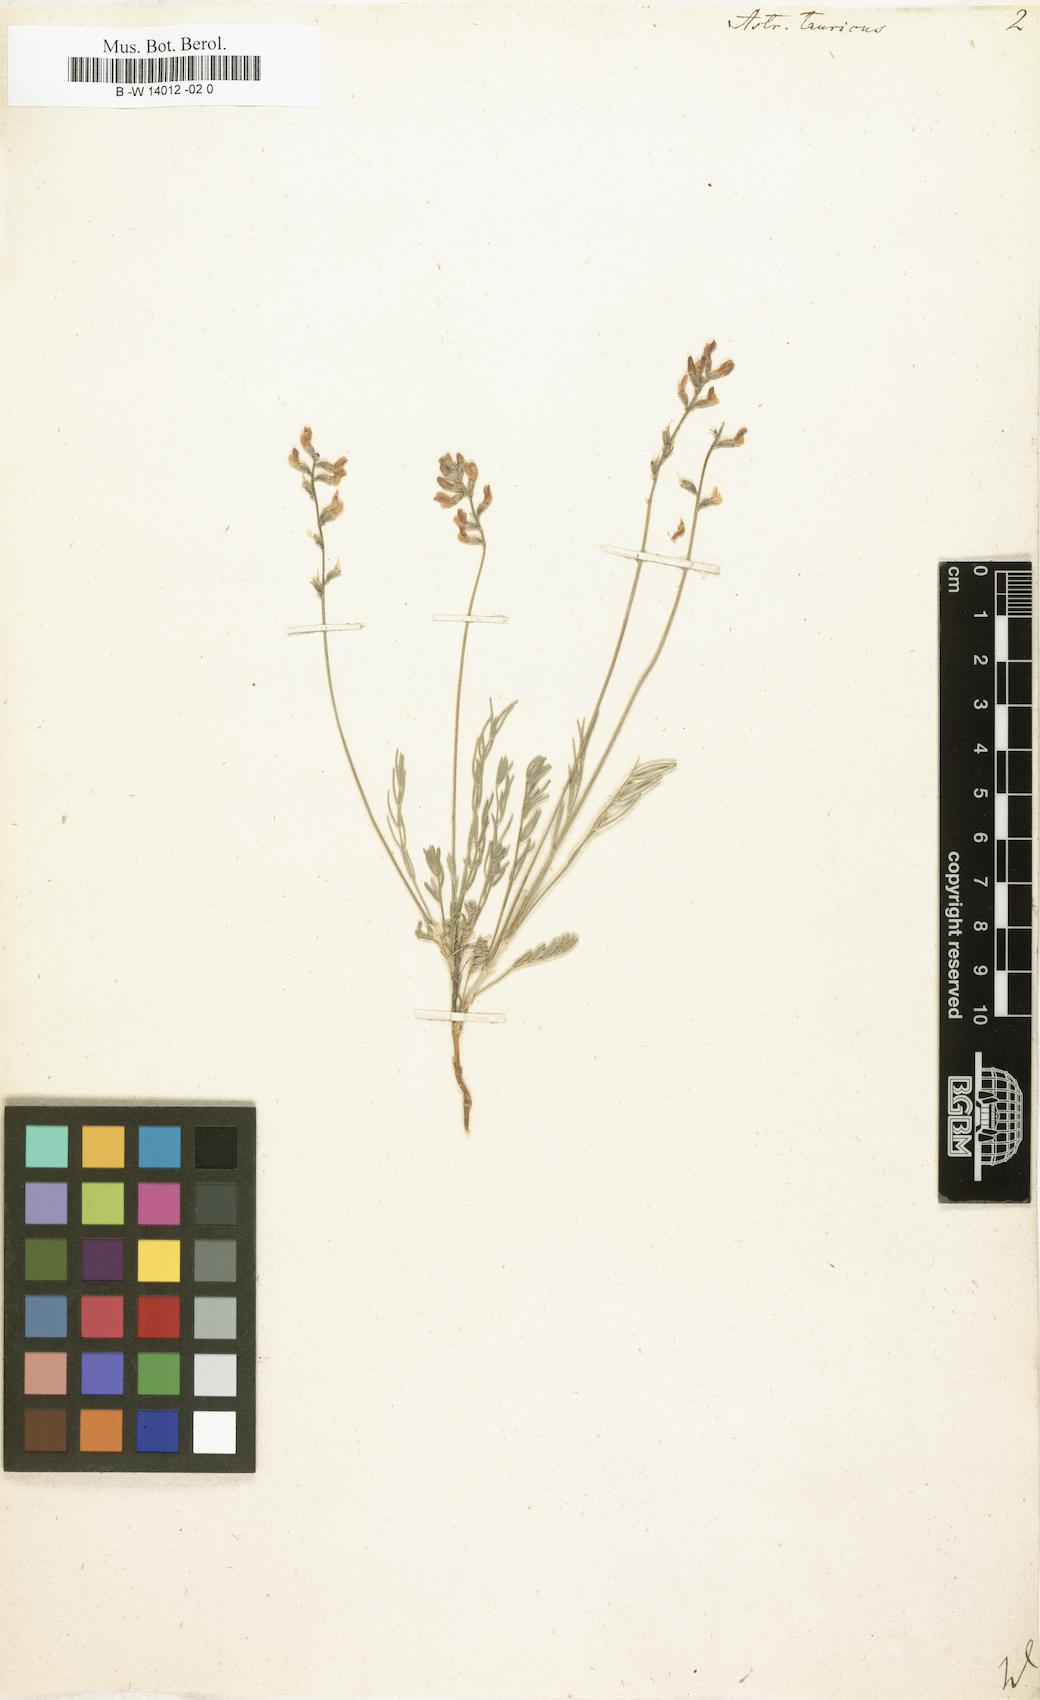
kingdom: Plantae
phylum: Tracheophyta
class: Magnoliopsida
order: Fabales
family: Fabaceae
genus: Astragalus
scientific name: Astragalus leontinus
